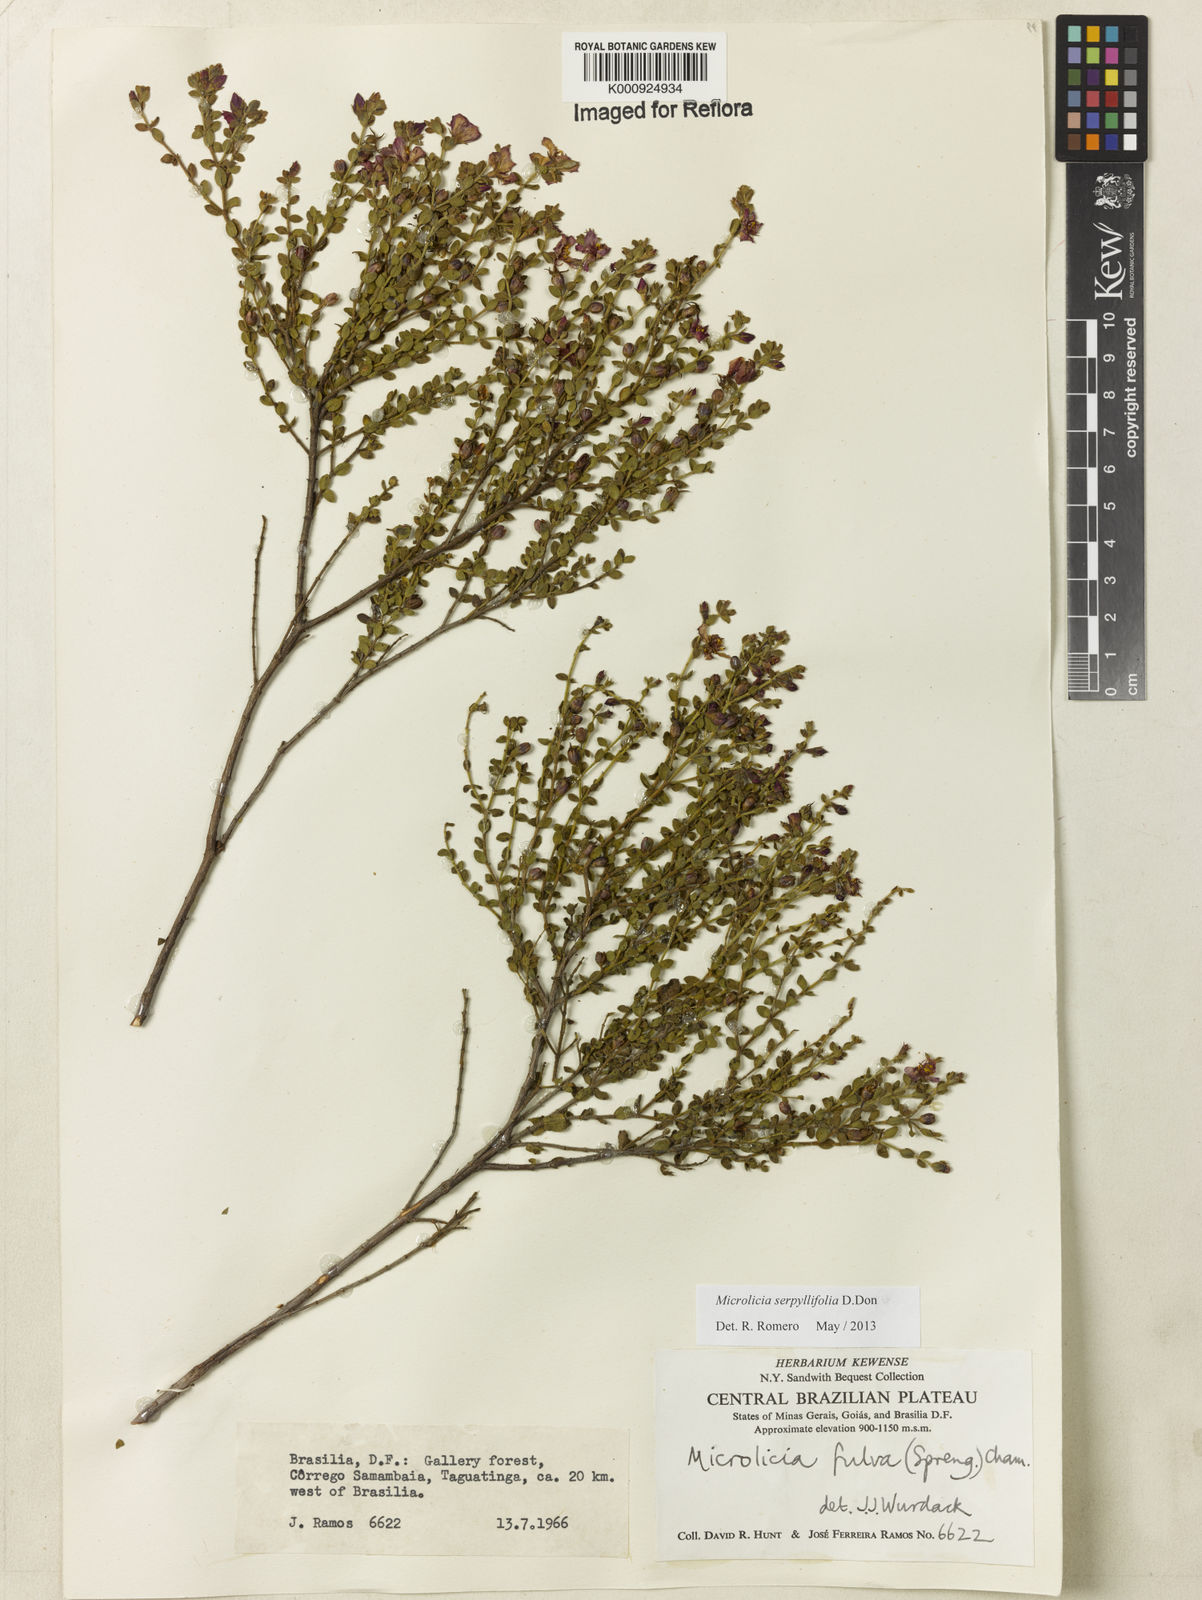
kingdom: Plantae
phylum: Tracheophyta
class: Magnoliopsida
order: Myrtales
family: Melastomataceae
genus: Microlicia
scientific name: Microlicia fulva
